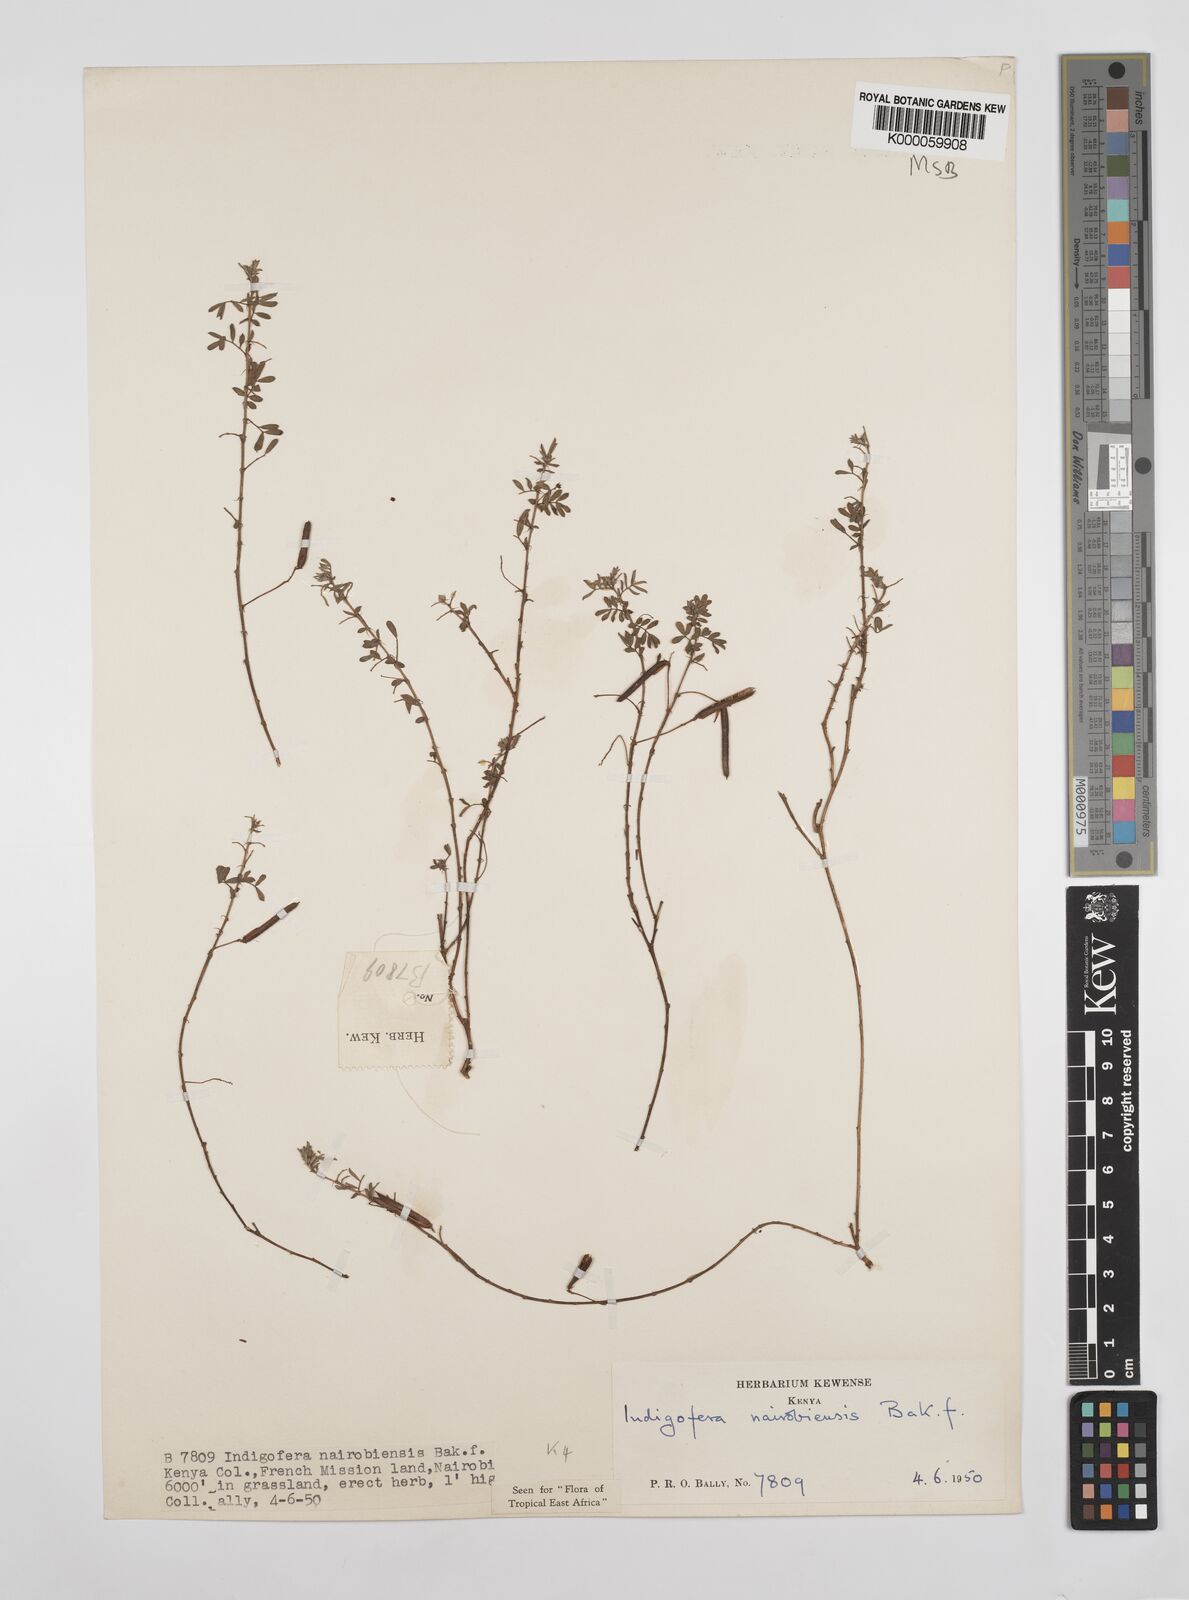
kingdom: Plantae
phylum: Tracheophyta
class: Magnoliopsida
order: Fabales
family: Fabaceae
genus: Indigofera
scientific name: Indigofera nairobiensis
